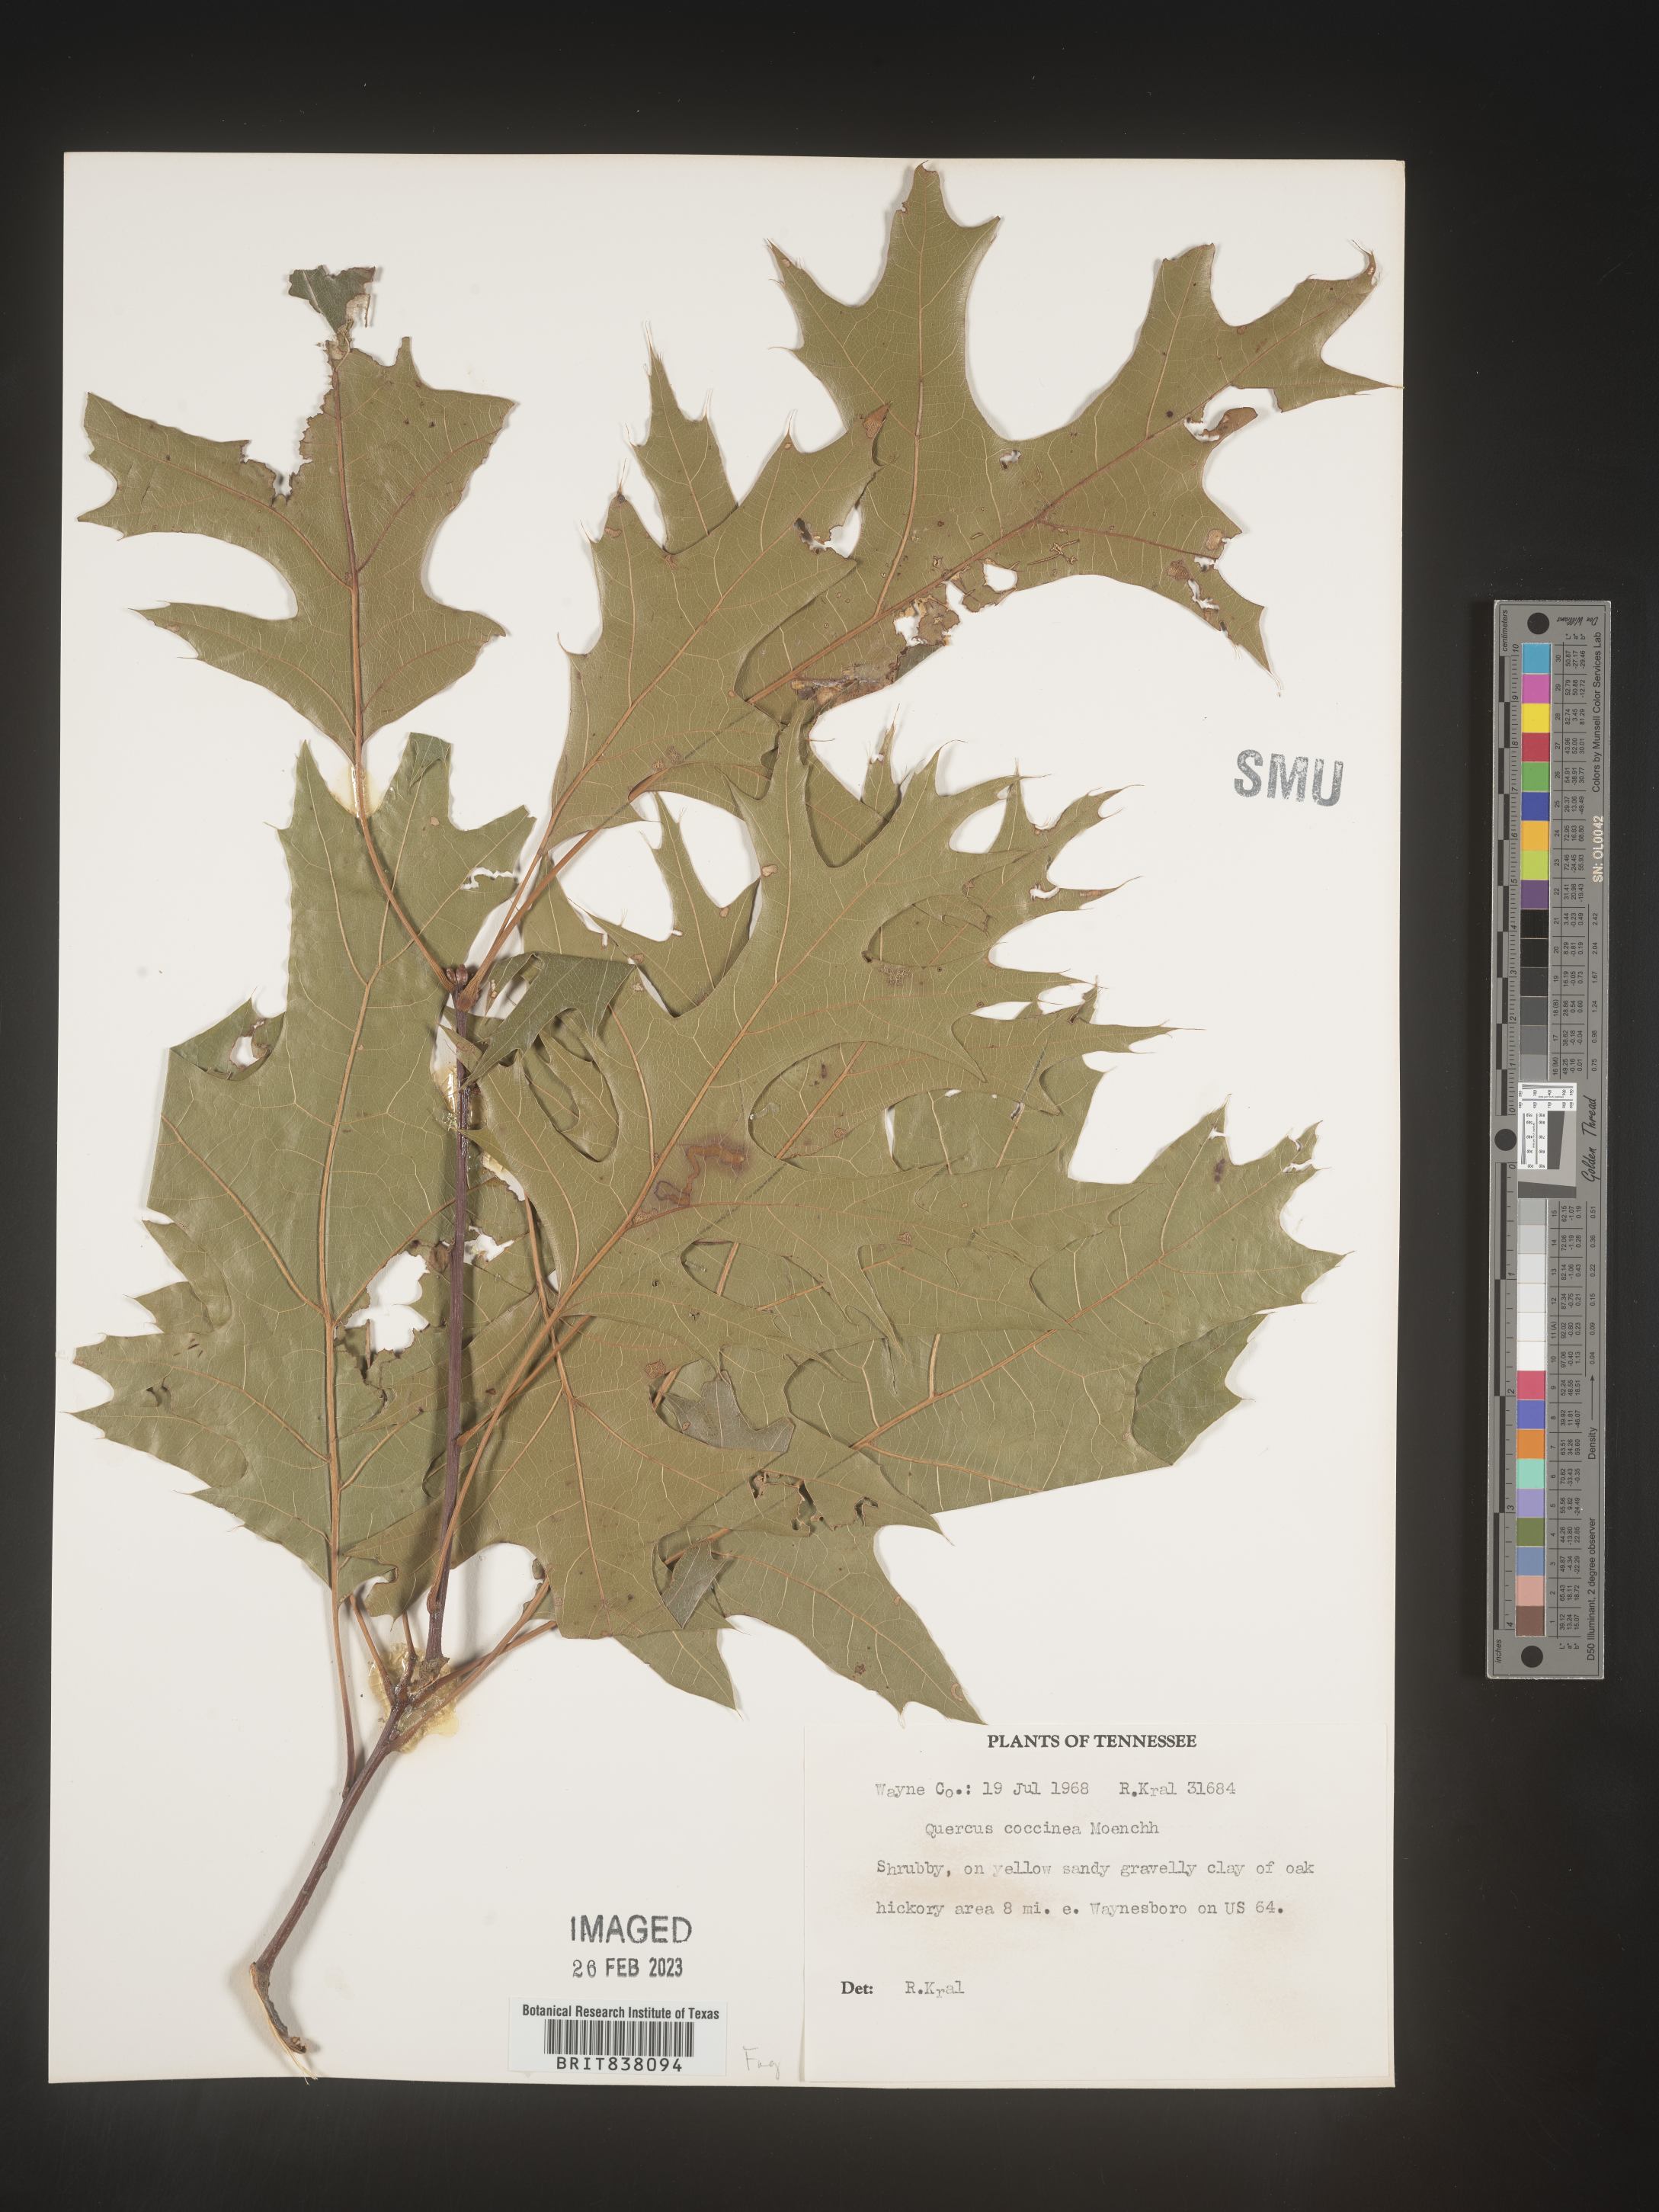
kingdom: Plantae
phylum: Tracheophyta
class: Magnoliopsida
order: Fagales
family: Fagaceae
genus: Quercus
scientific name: Quercus coccinea
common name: Scarlet oak
